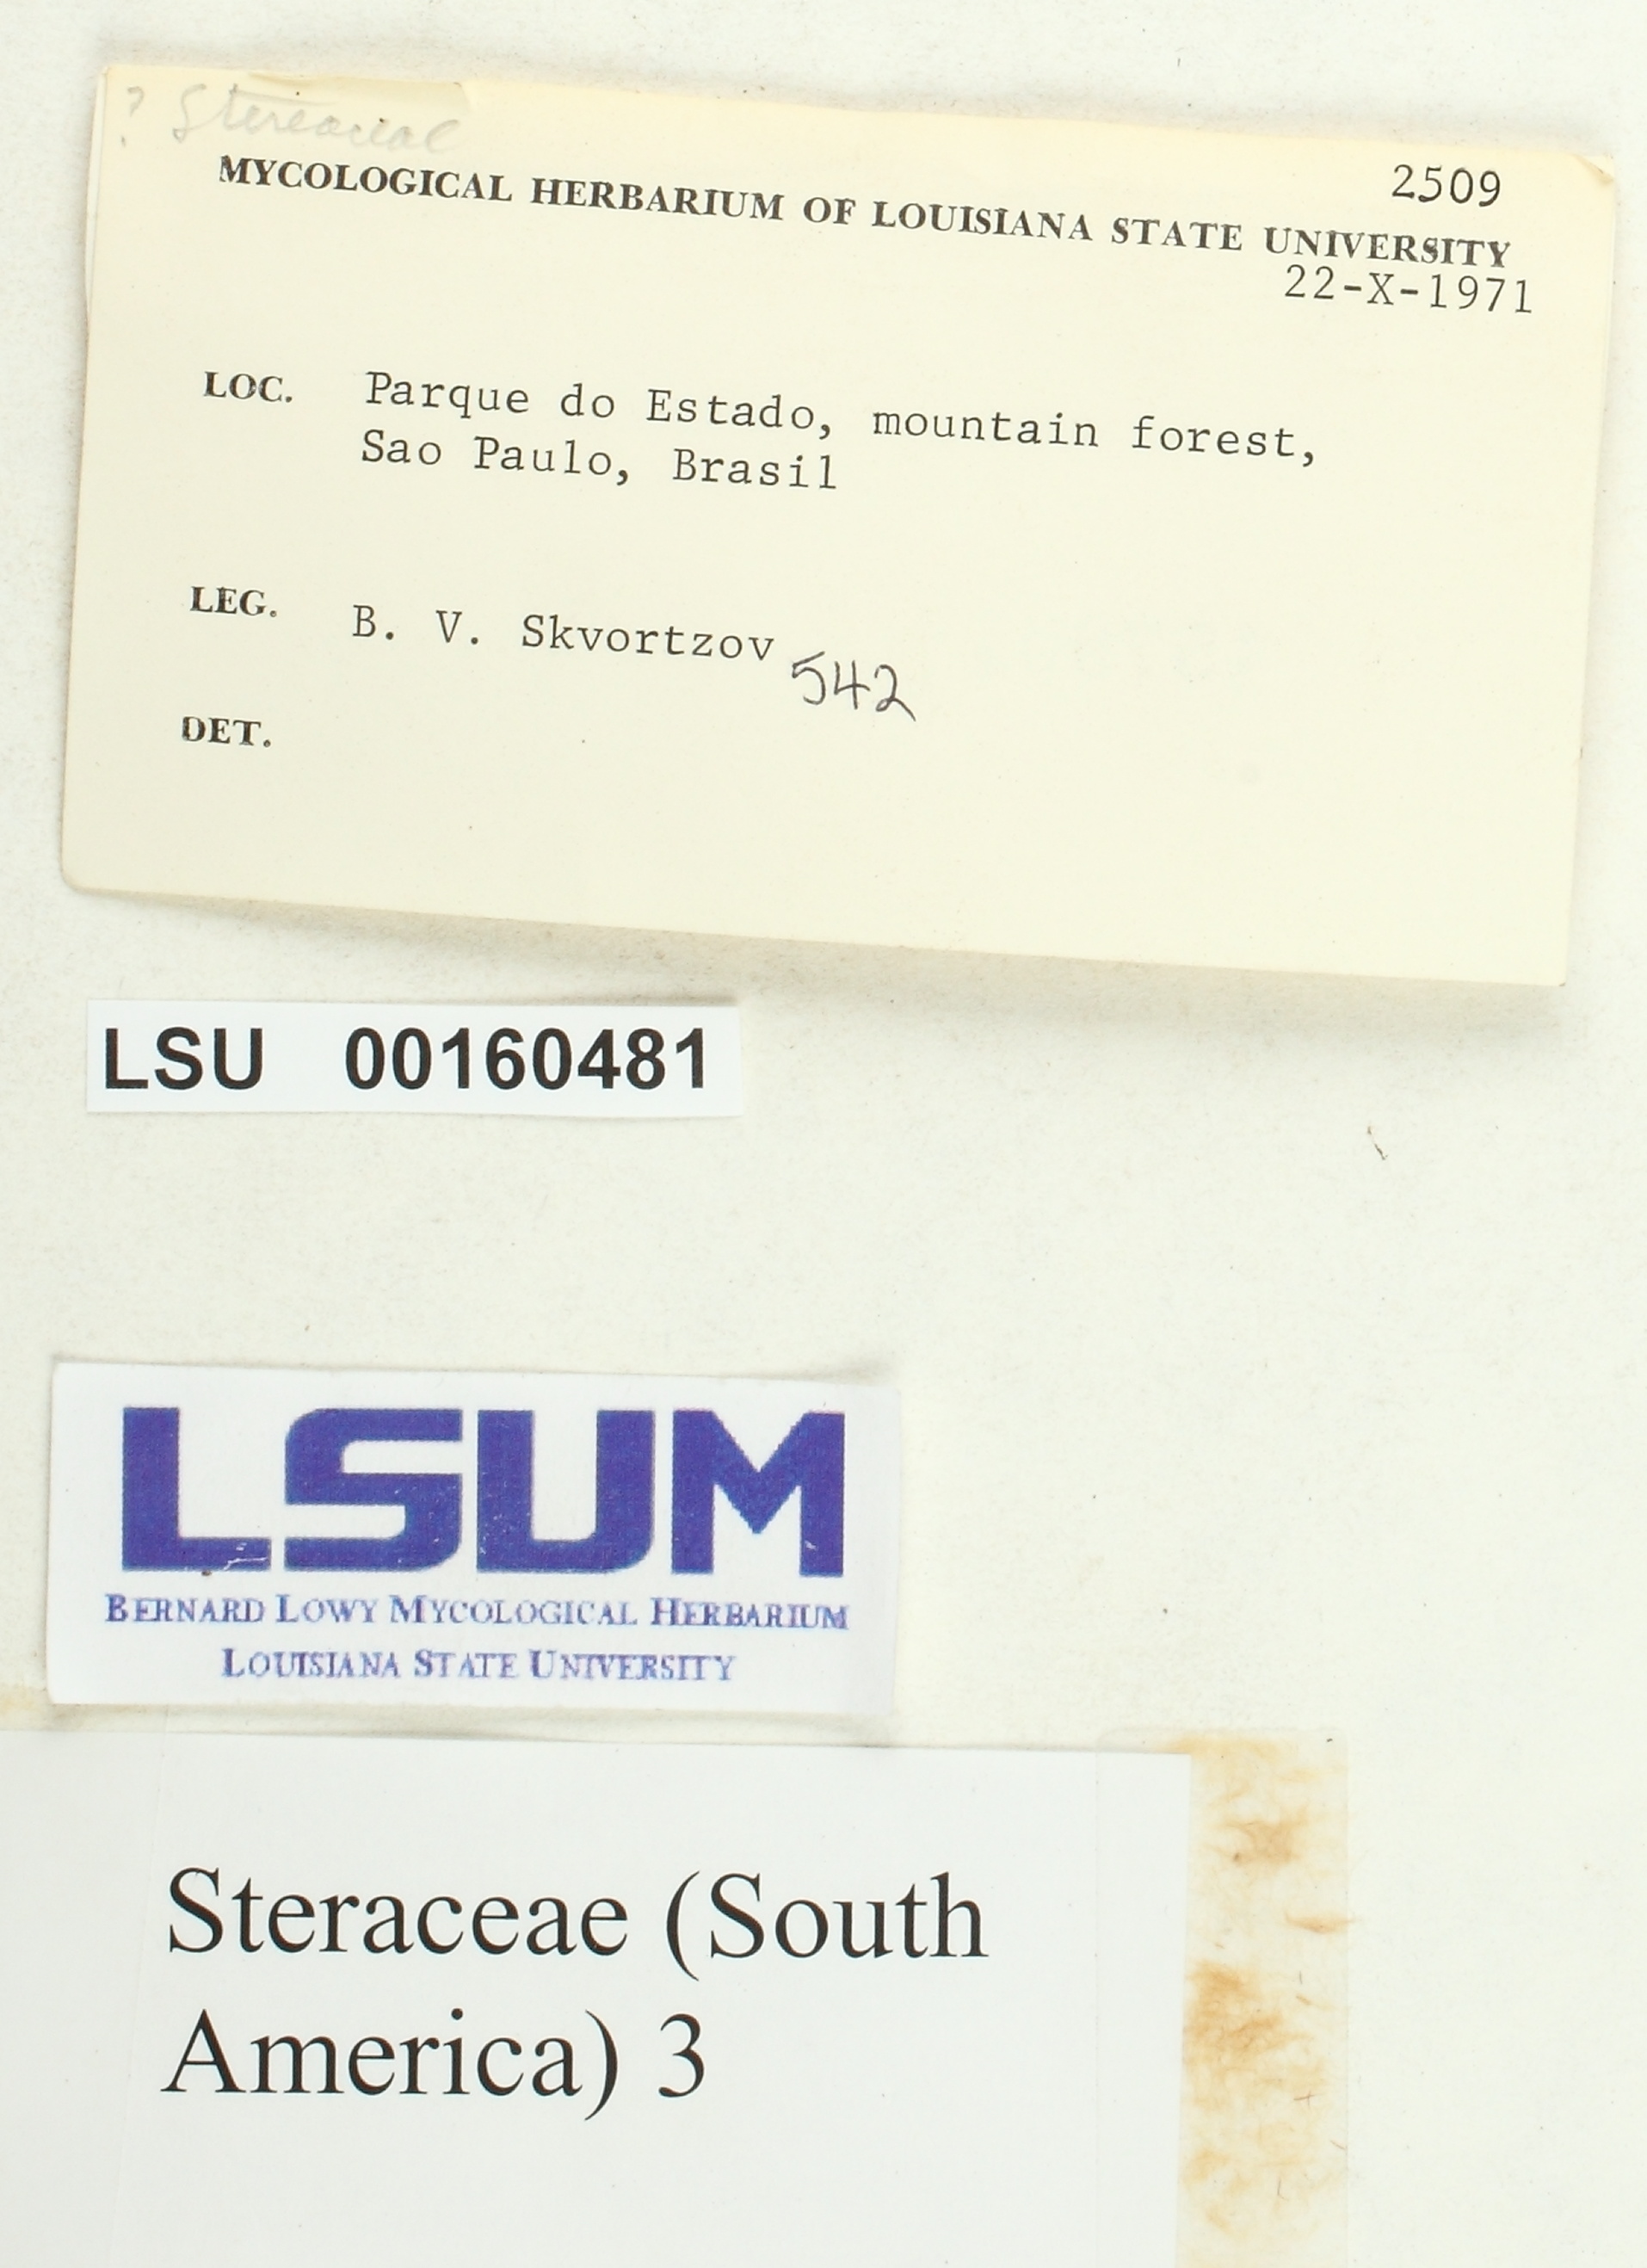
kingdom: Fungi
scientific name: Fungi
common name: Fungi
